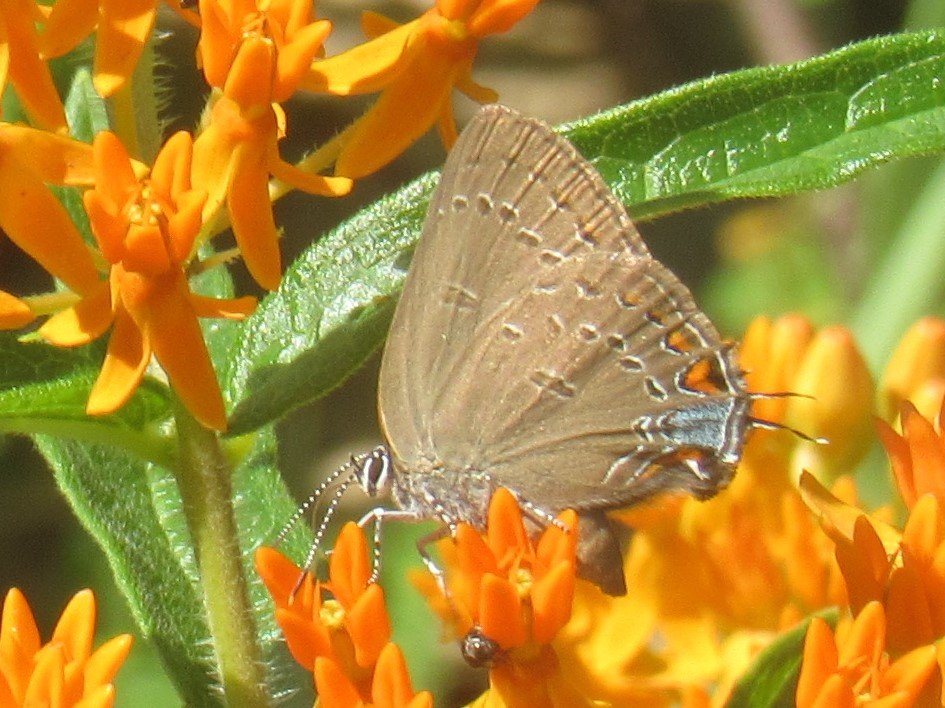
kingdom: Animalia
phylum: Arthropoda
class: Insecta
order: Lepidoptera
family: Lycaenidae
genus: Satyrium
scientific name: Satyrium edwardsii
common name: Edwards' Hairstreak
